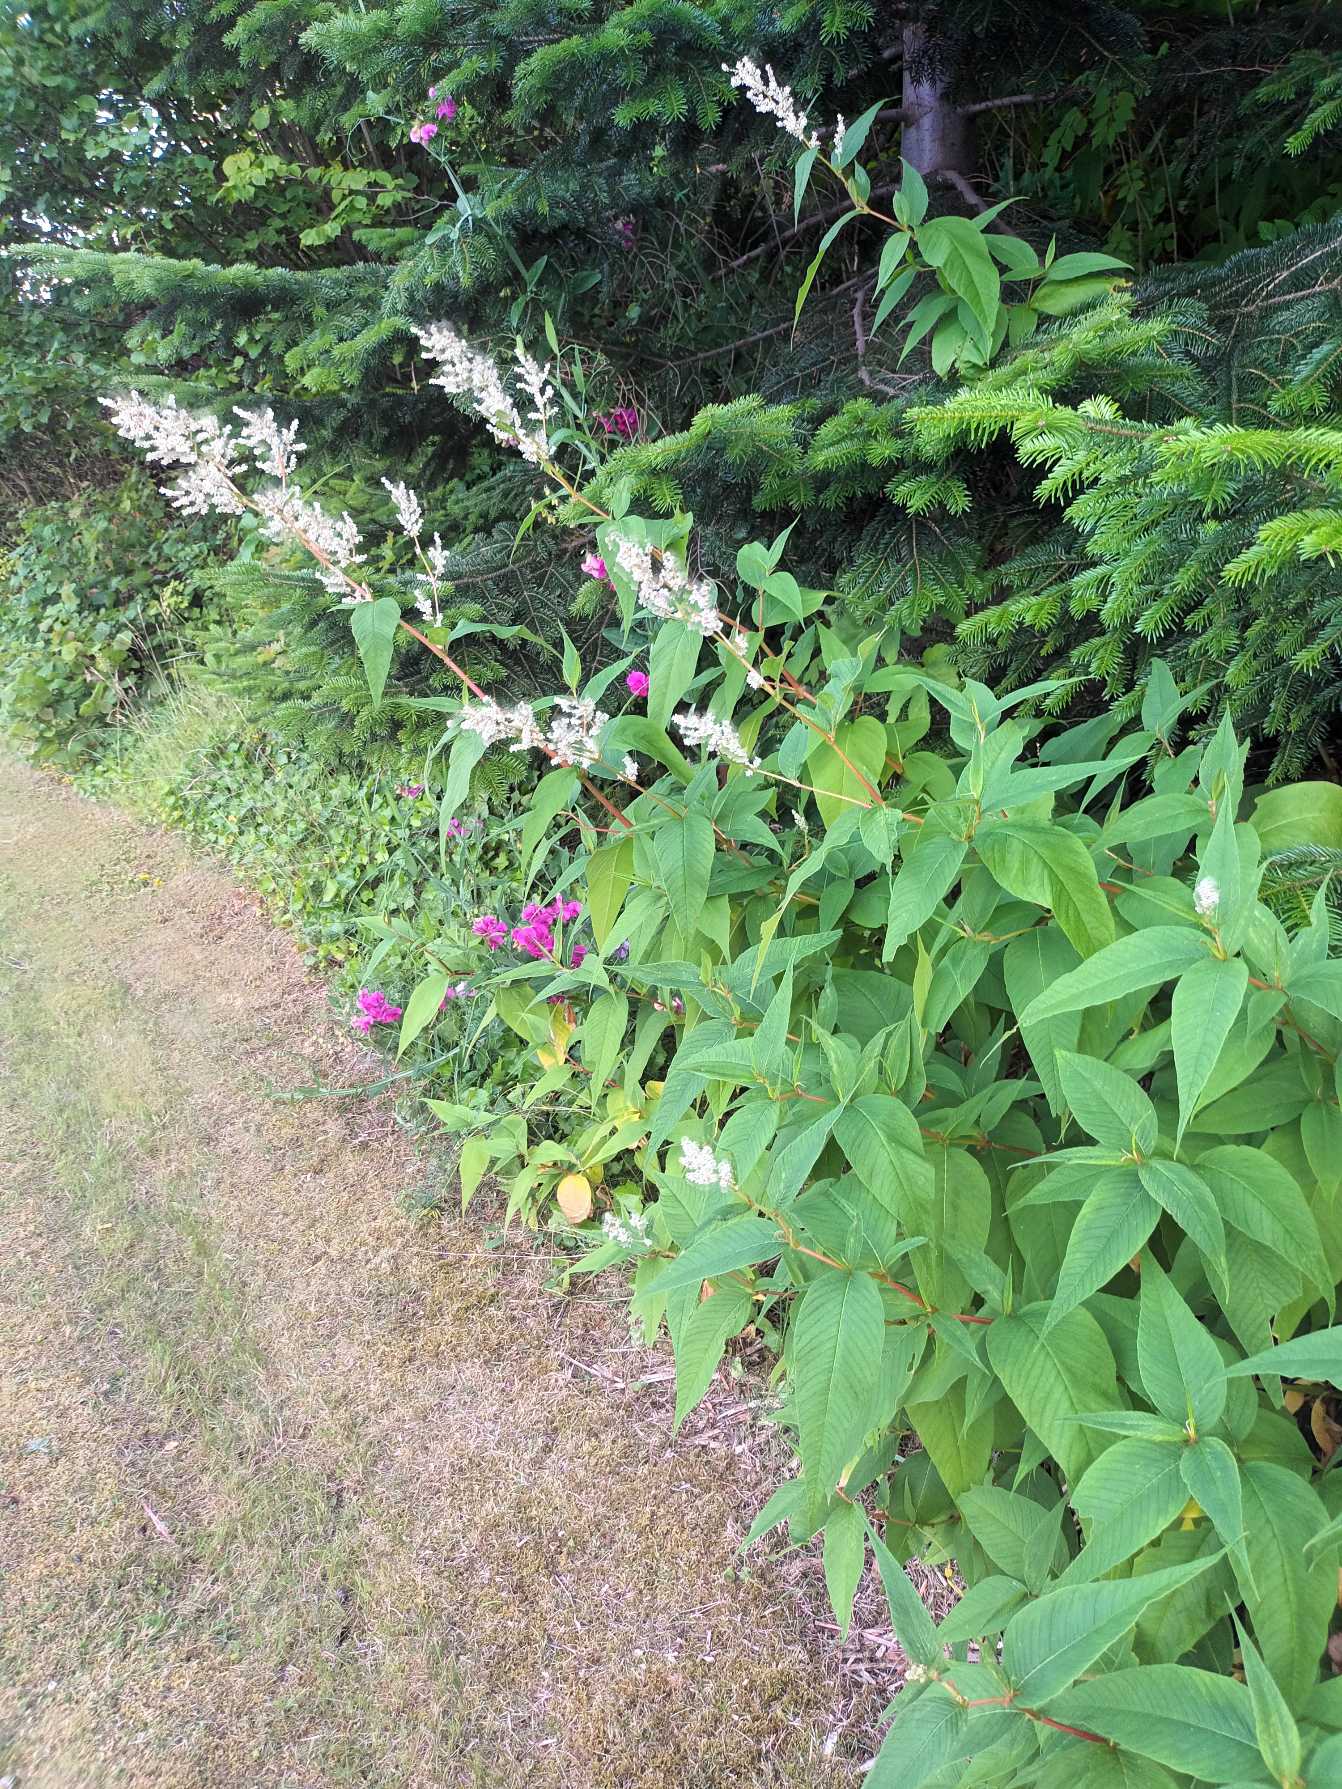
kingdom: Plantae
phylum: Tracheophyta
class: Magnoliopsida
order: Caryophyllales
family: Polygonaceae
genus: Koenigia
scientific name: Koenigia fennica
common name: Finsk pileurt
